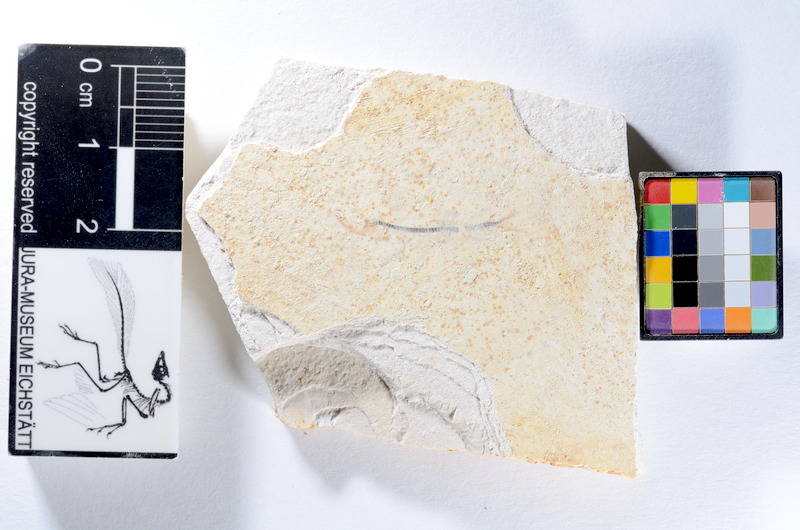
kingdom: Animalia
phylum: Chordata
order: Salmoniformes
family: Orthogonikleithridae
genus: Orthogonikleithrus
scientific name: Orthogonikleithrus hoelli
